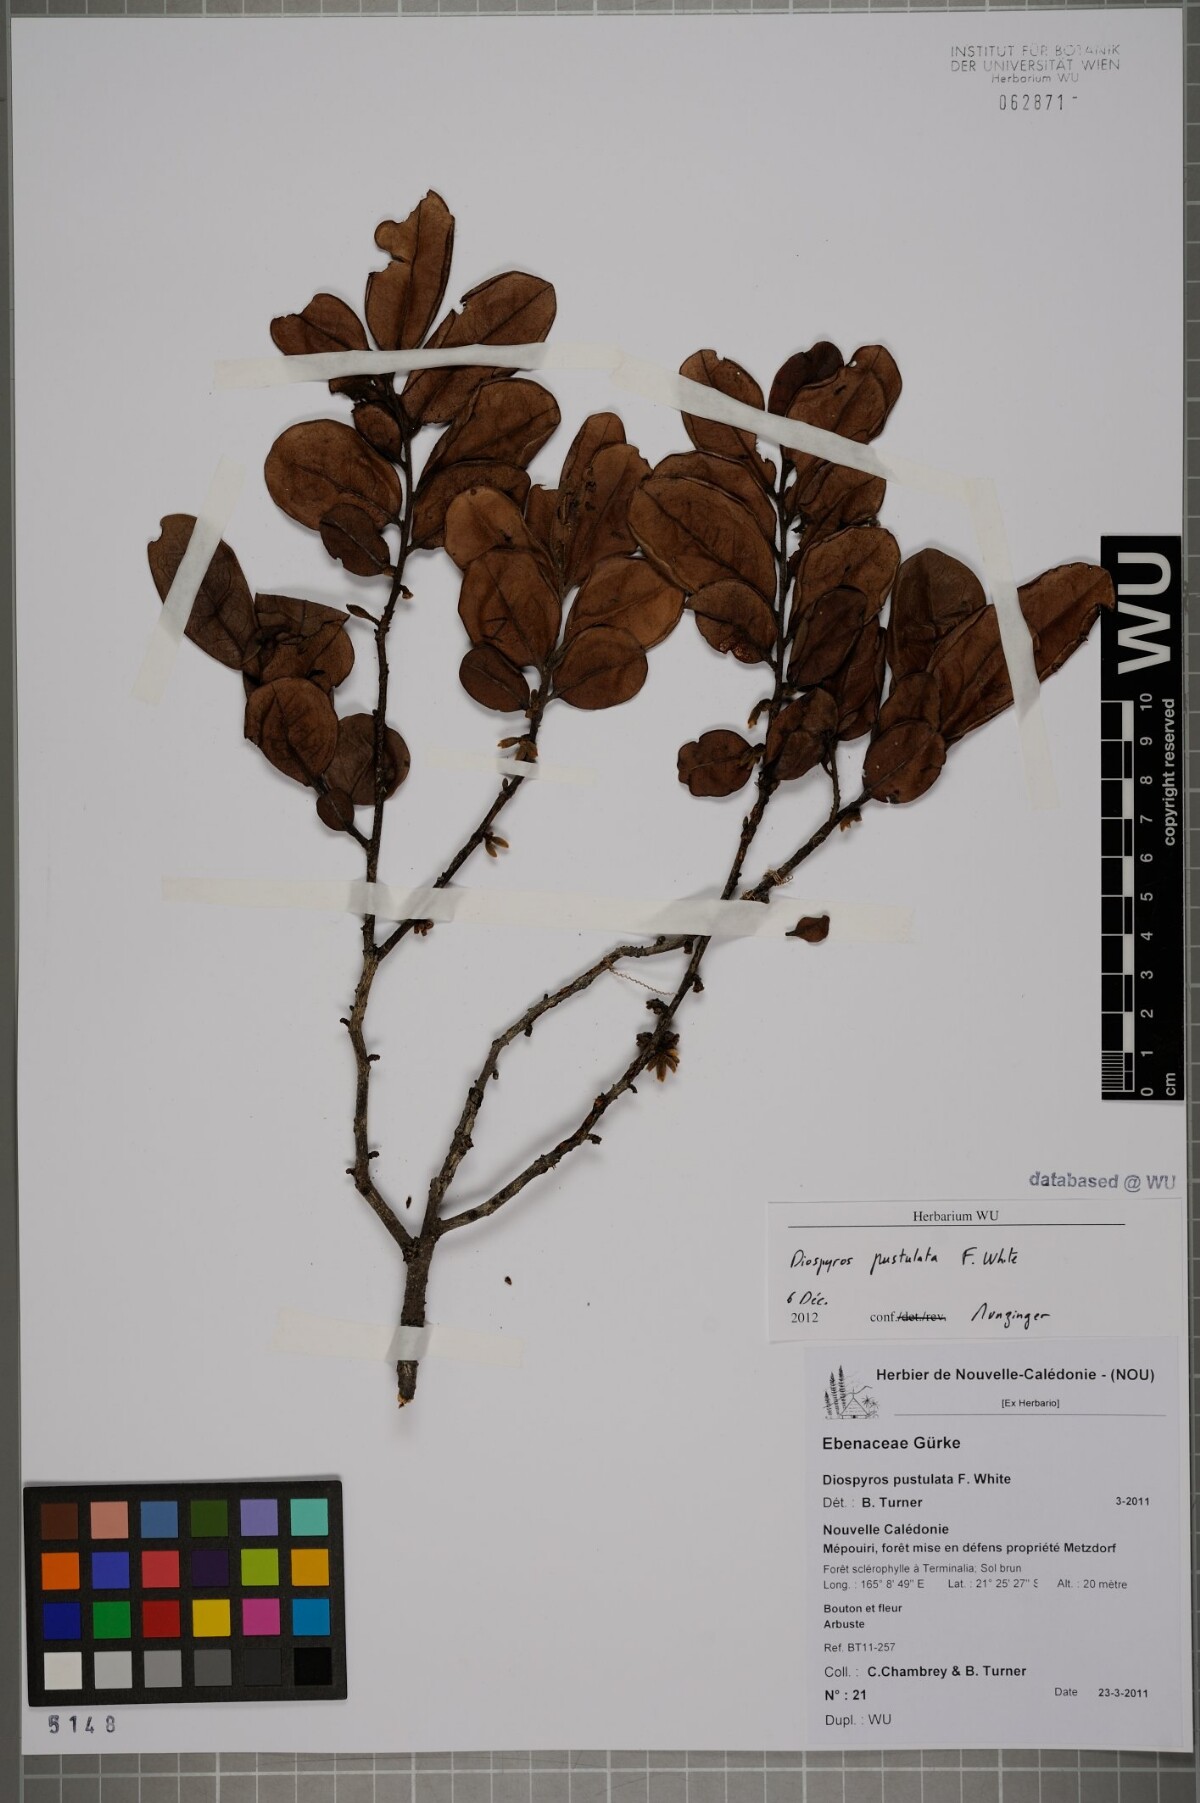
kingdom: Plantae
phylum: Tracheophyta
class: Magnoliopsida
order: Ericales
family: Ebenaceae
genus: Diospyros
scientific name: Diospyros revolutissima
